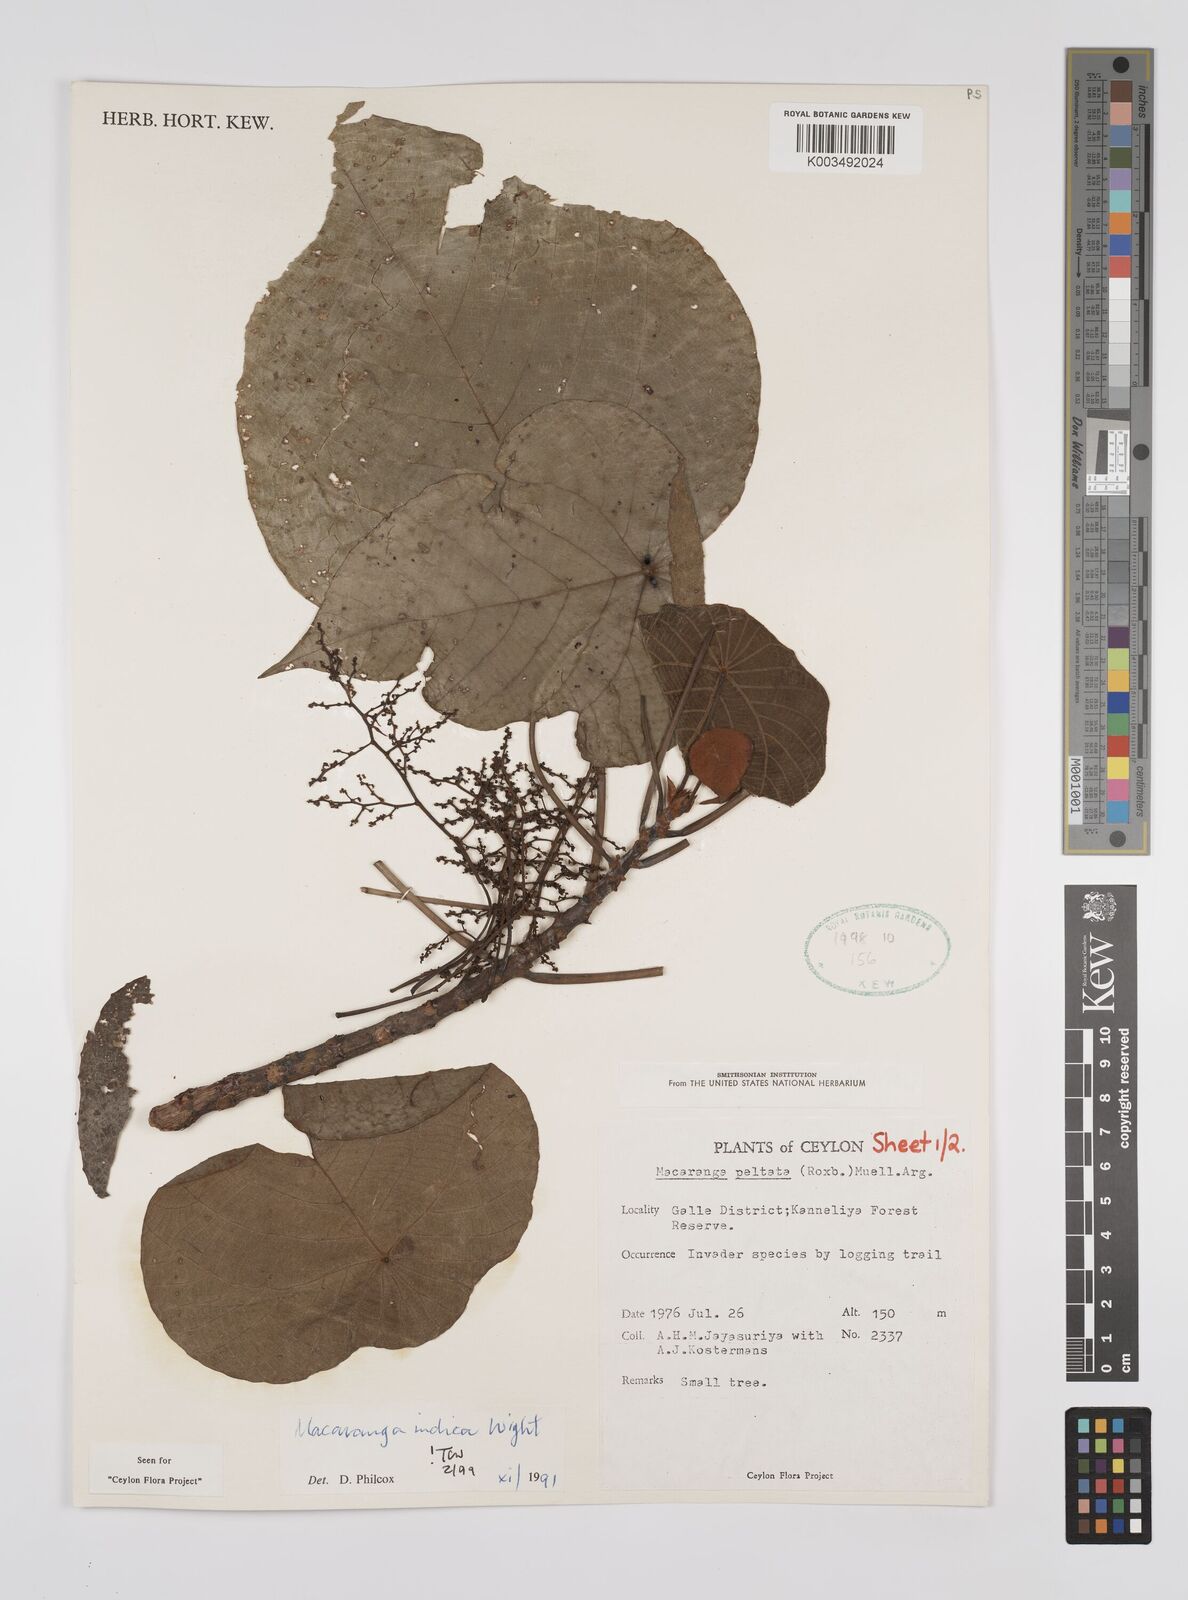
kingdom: Plantae
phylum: Tracheophyta
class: Magnoliopsida
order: Malpighiales
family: Euphorbiaceae
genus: Macaranga
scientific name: Macaranga indica
